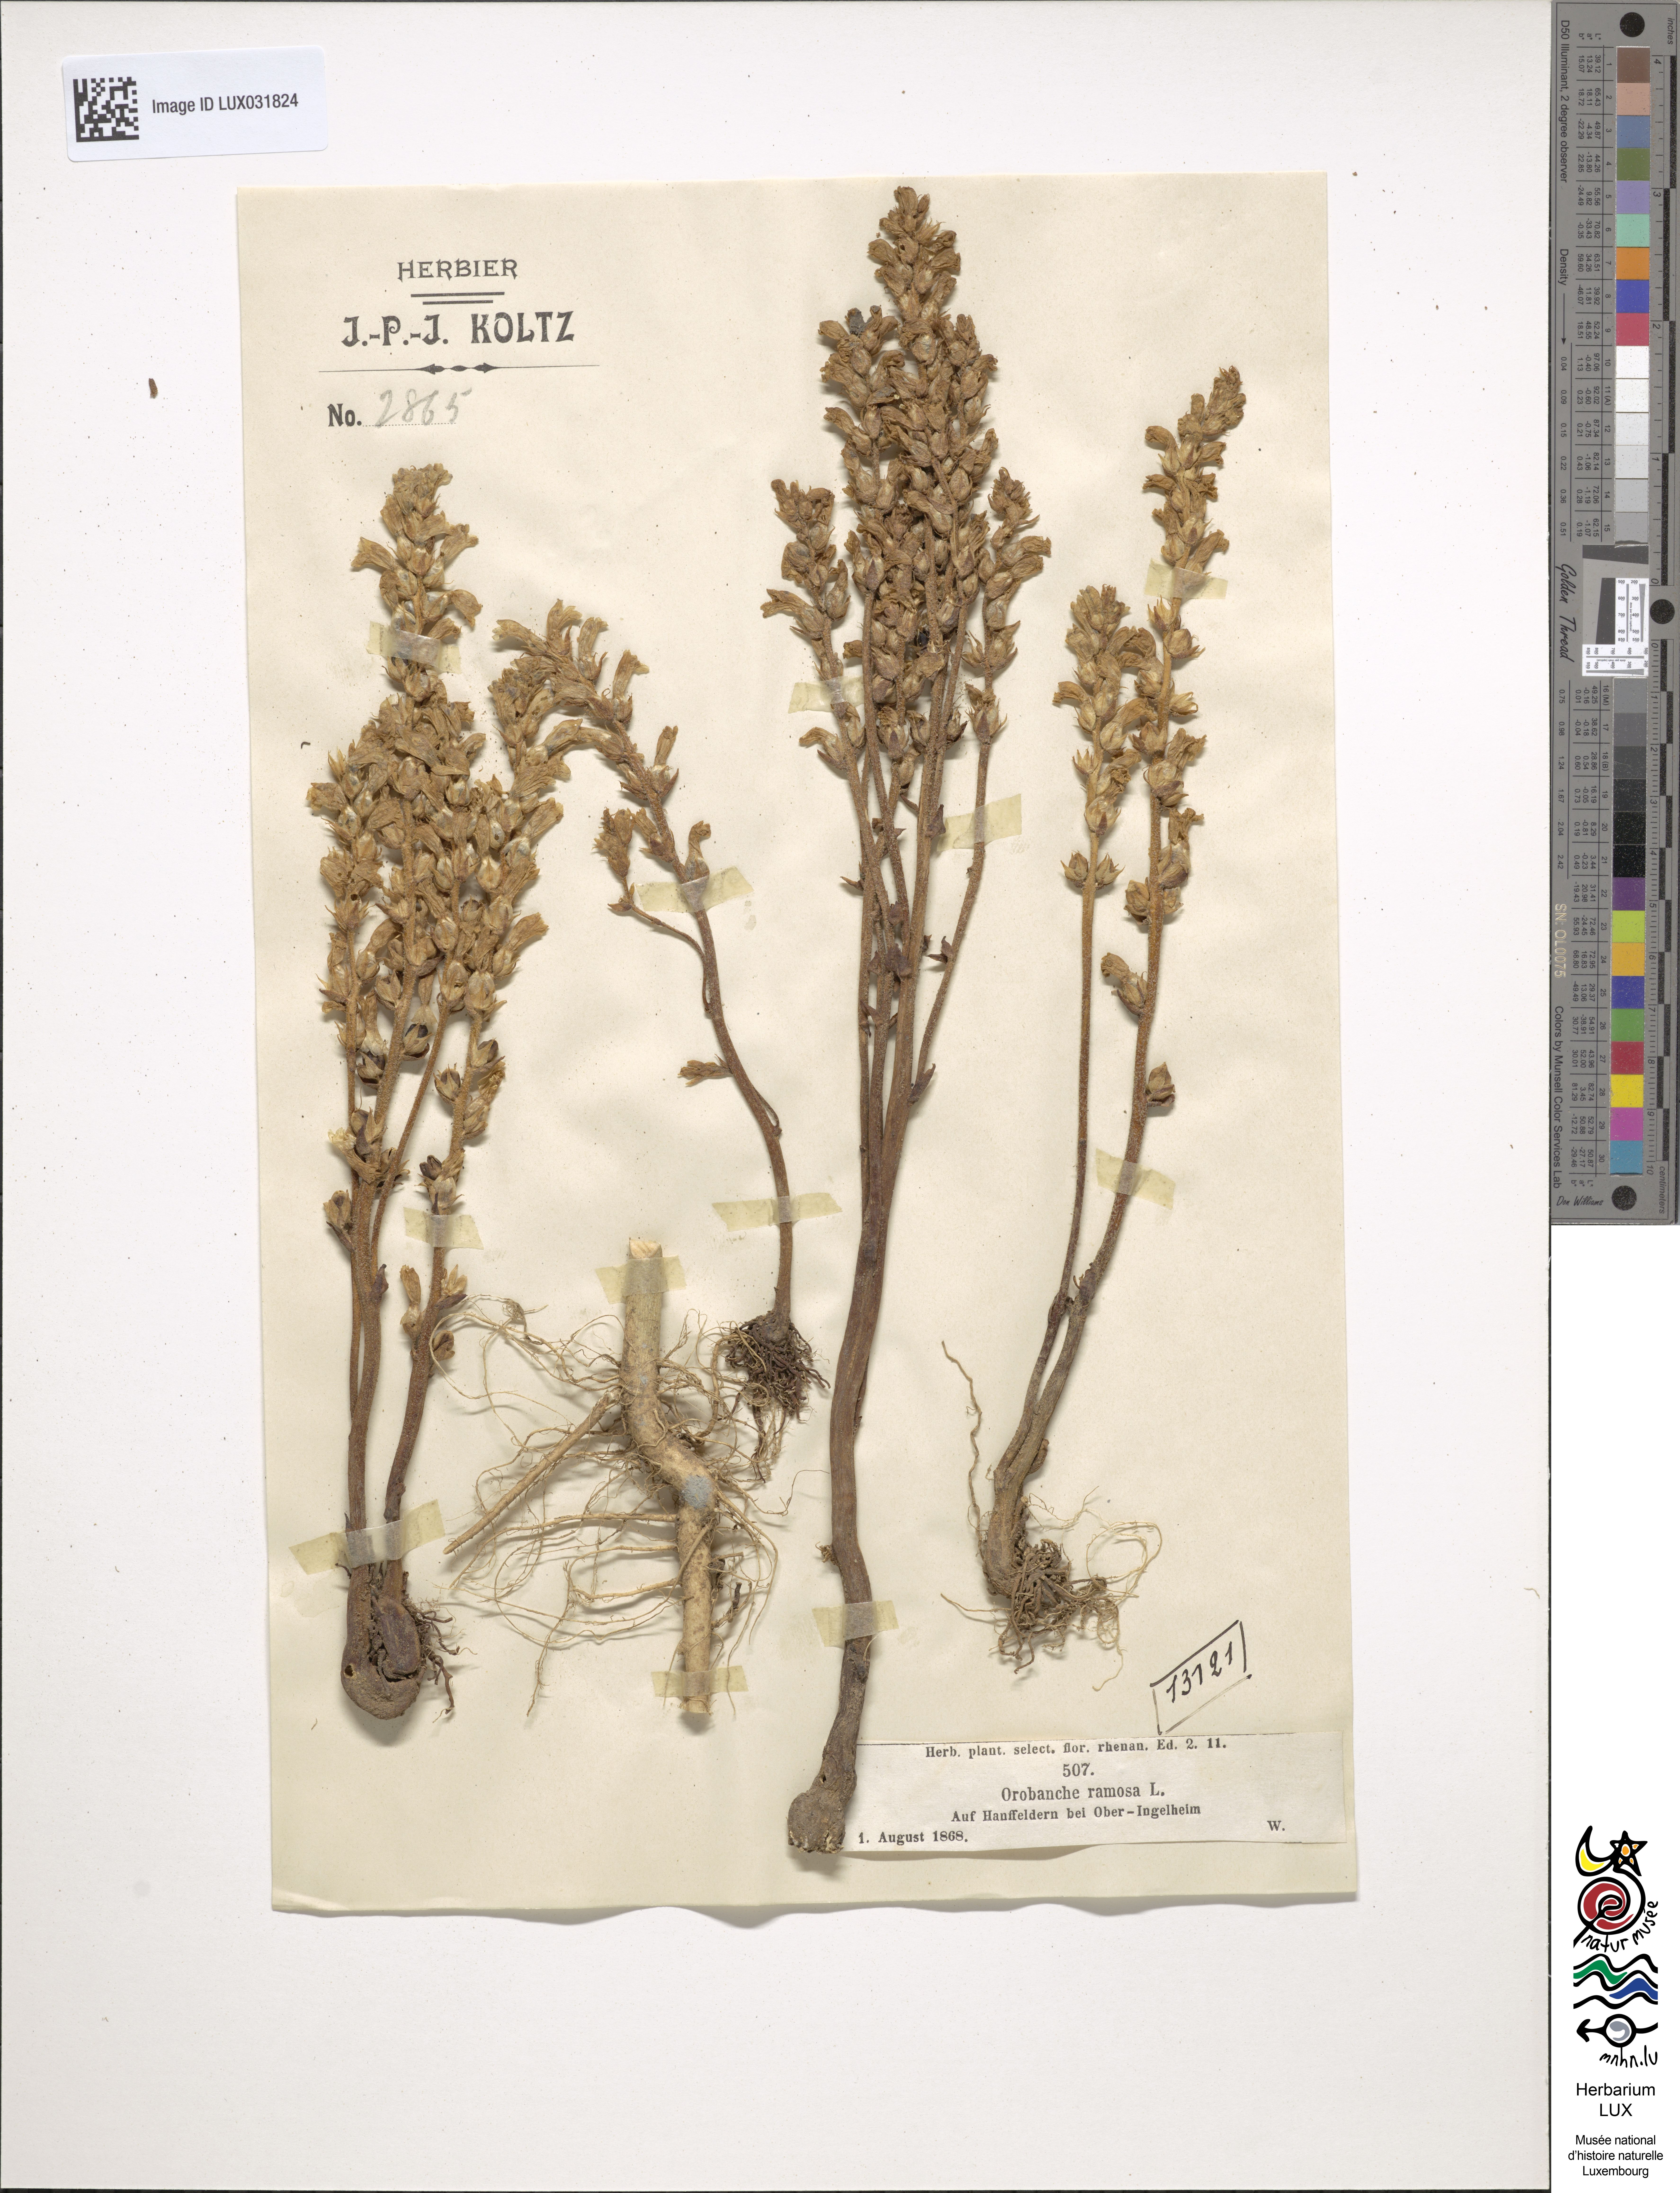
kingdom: Plantae
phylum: Tracheophyta
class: Magnoliopsida
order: Lamiales
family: Orobanchaceae
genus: Phelipanche
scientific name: Phelipanche ramosa
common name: Branched broomrape
